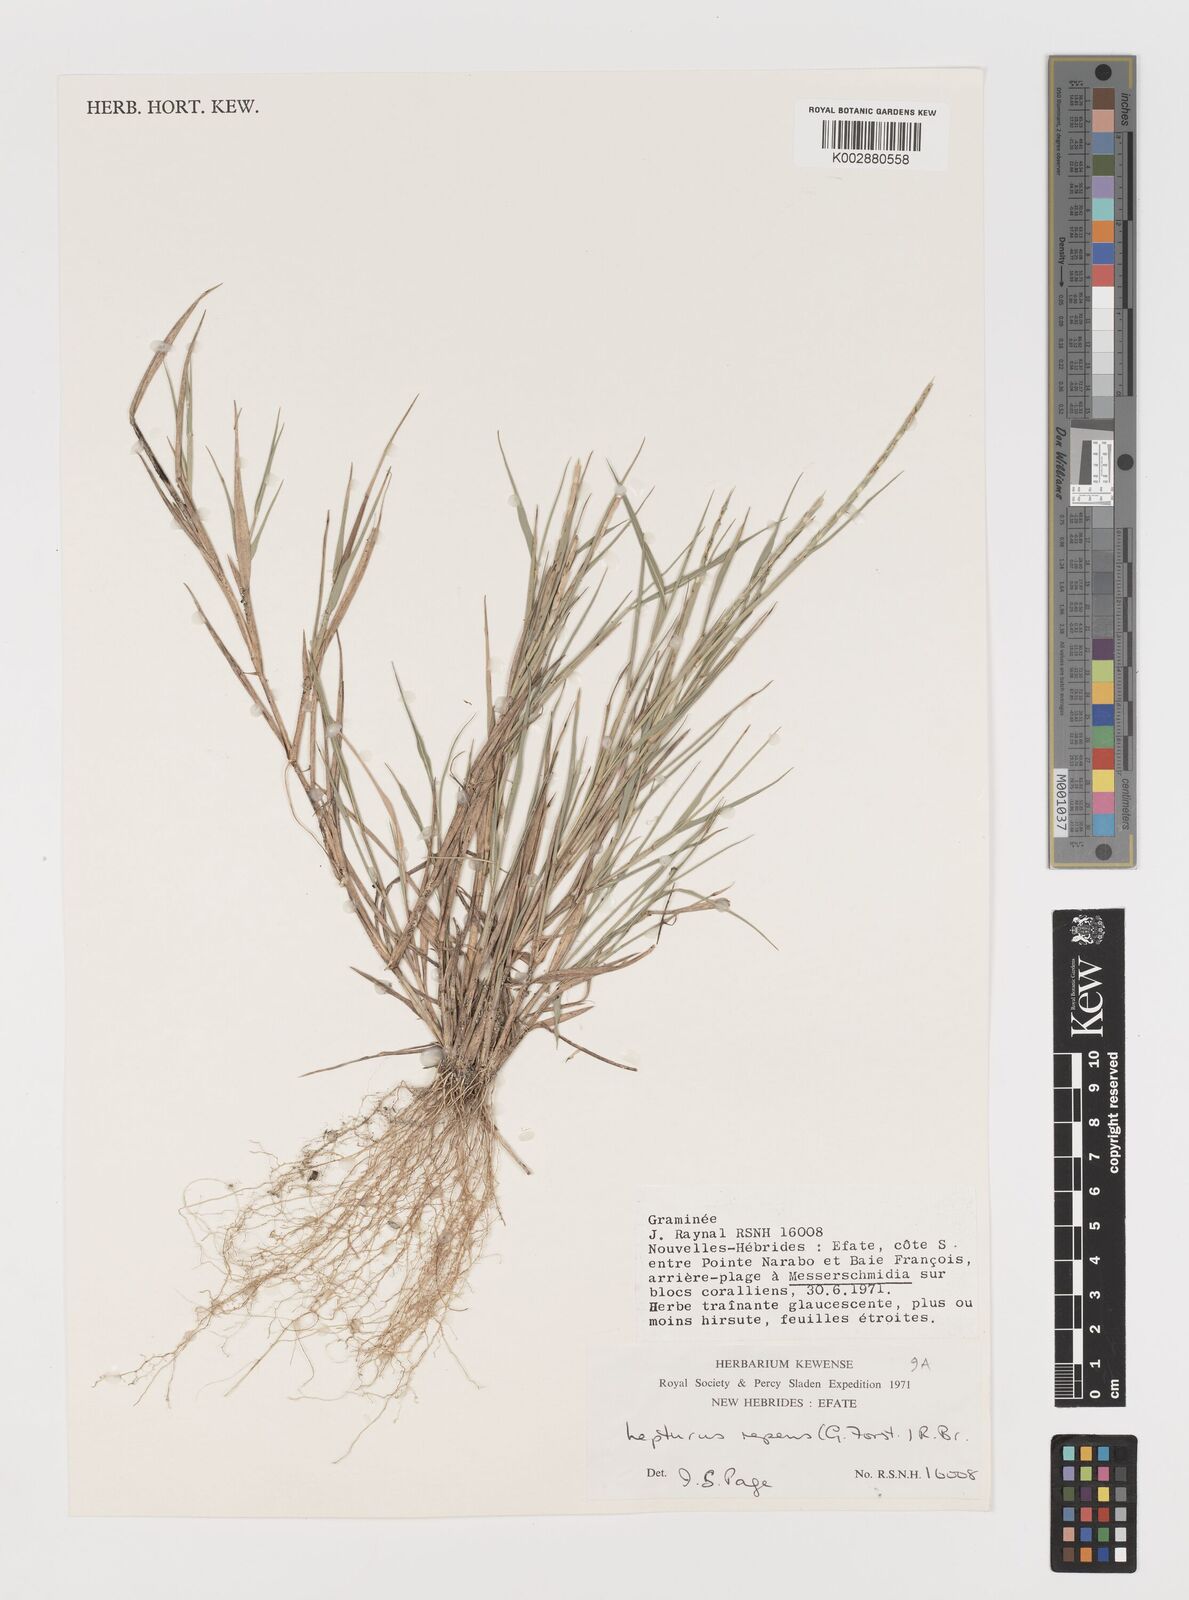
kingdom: Plantae
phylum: Tracheophyta
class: Liliopsida
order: Poales
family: Poaceae
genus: Lepturus
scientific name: Lepturus repens
